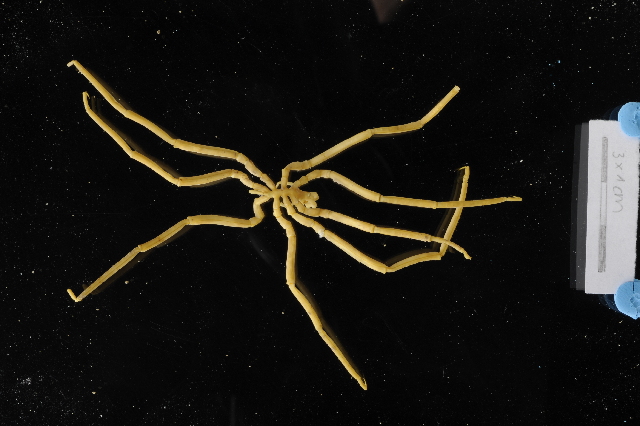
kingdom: Animalia
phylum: Arthropoda
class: Pycnogonida
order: Pantopoda
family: Pallenopsidae
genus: Pallenopsis
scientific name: Pallenopsis latefrontalis
